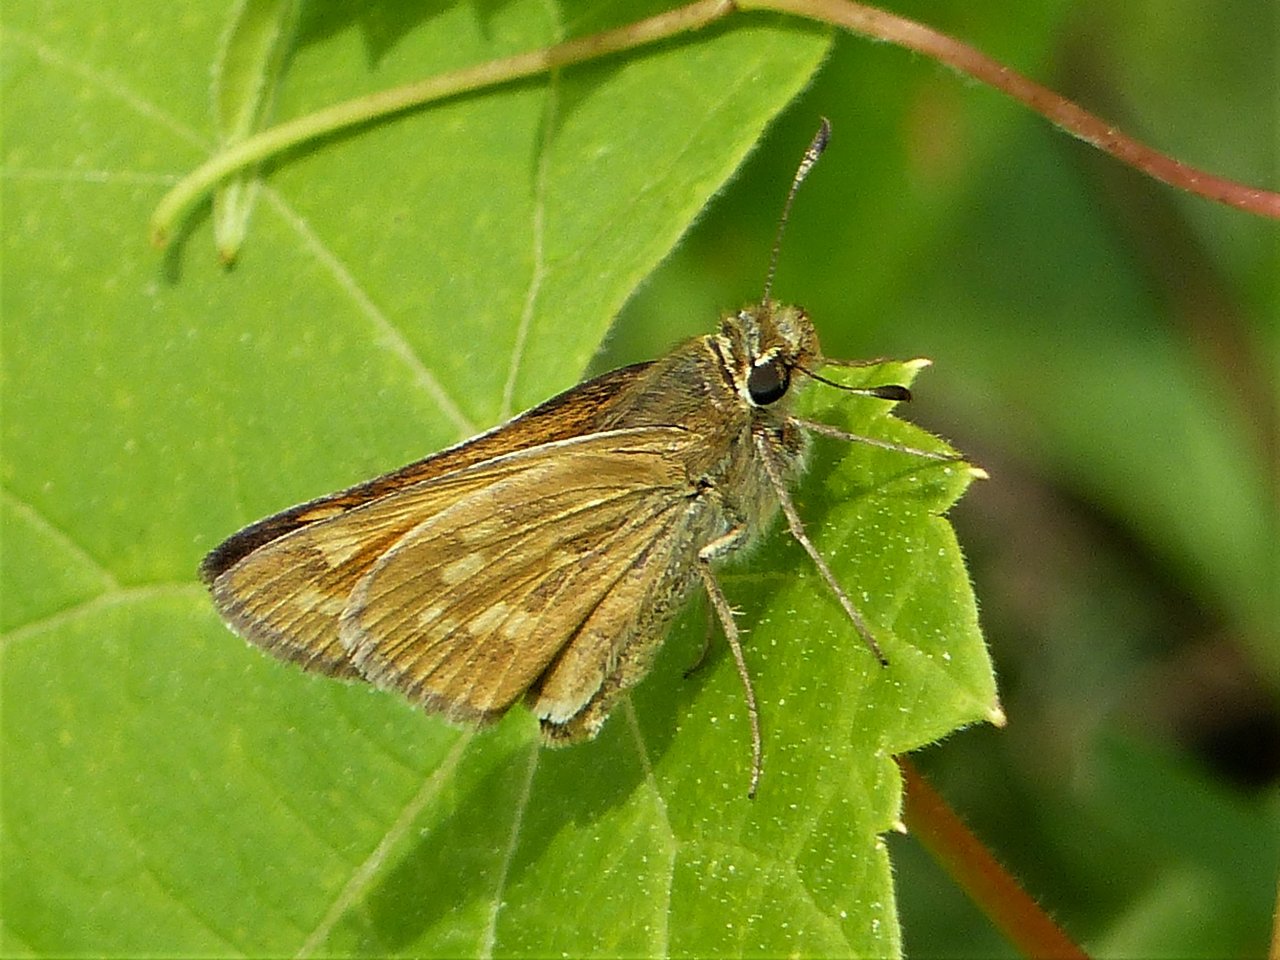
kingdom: Animalia
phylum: Arthropoda
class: Insecta
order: Lepidoptera
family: Hesperiidae
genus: Hesperia
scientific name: Hesperia sassacus
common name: Sassacus Skipper
